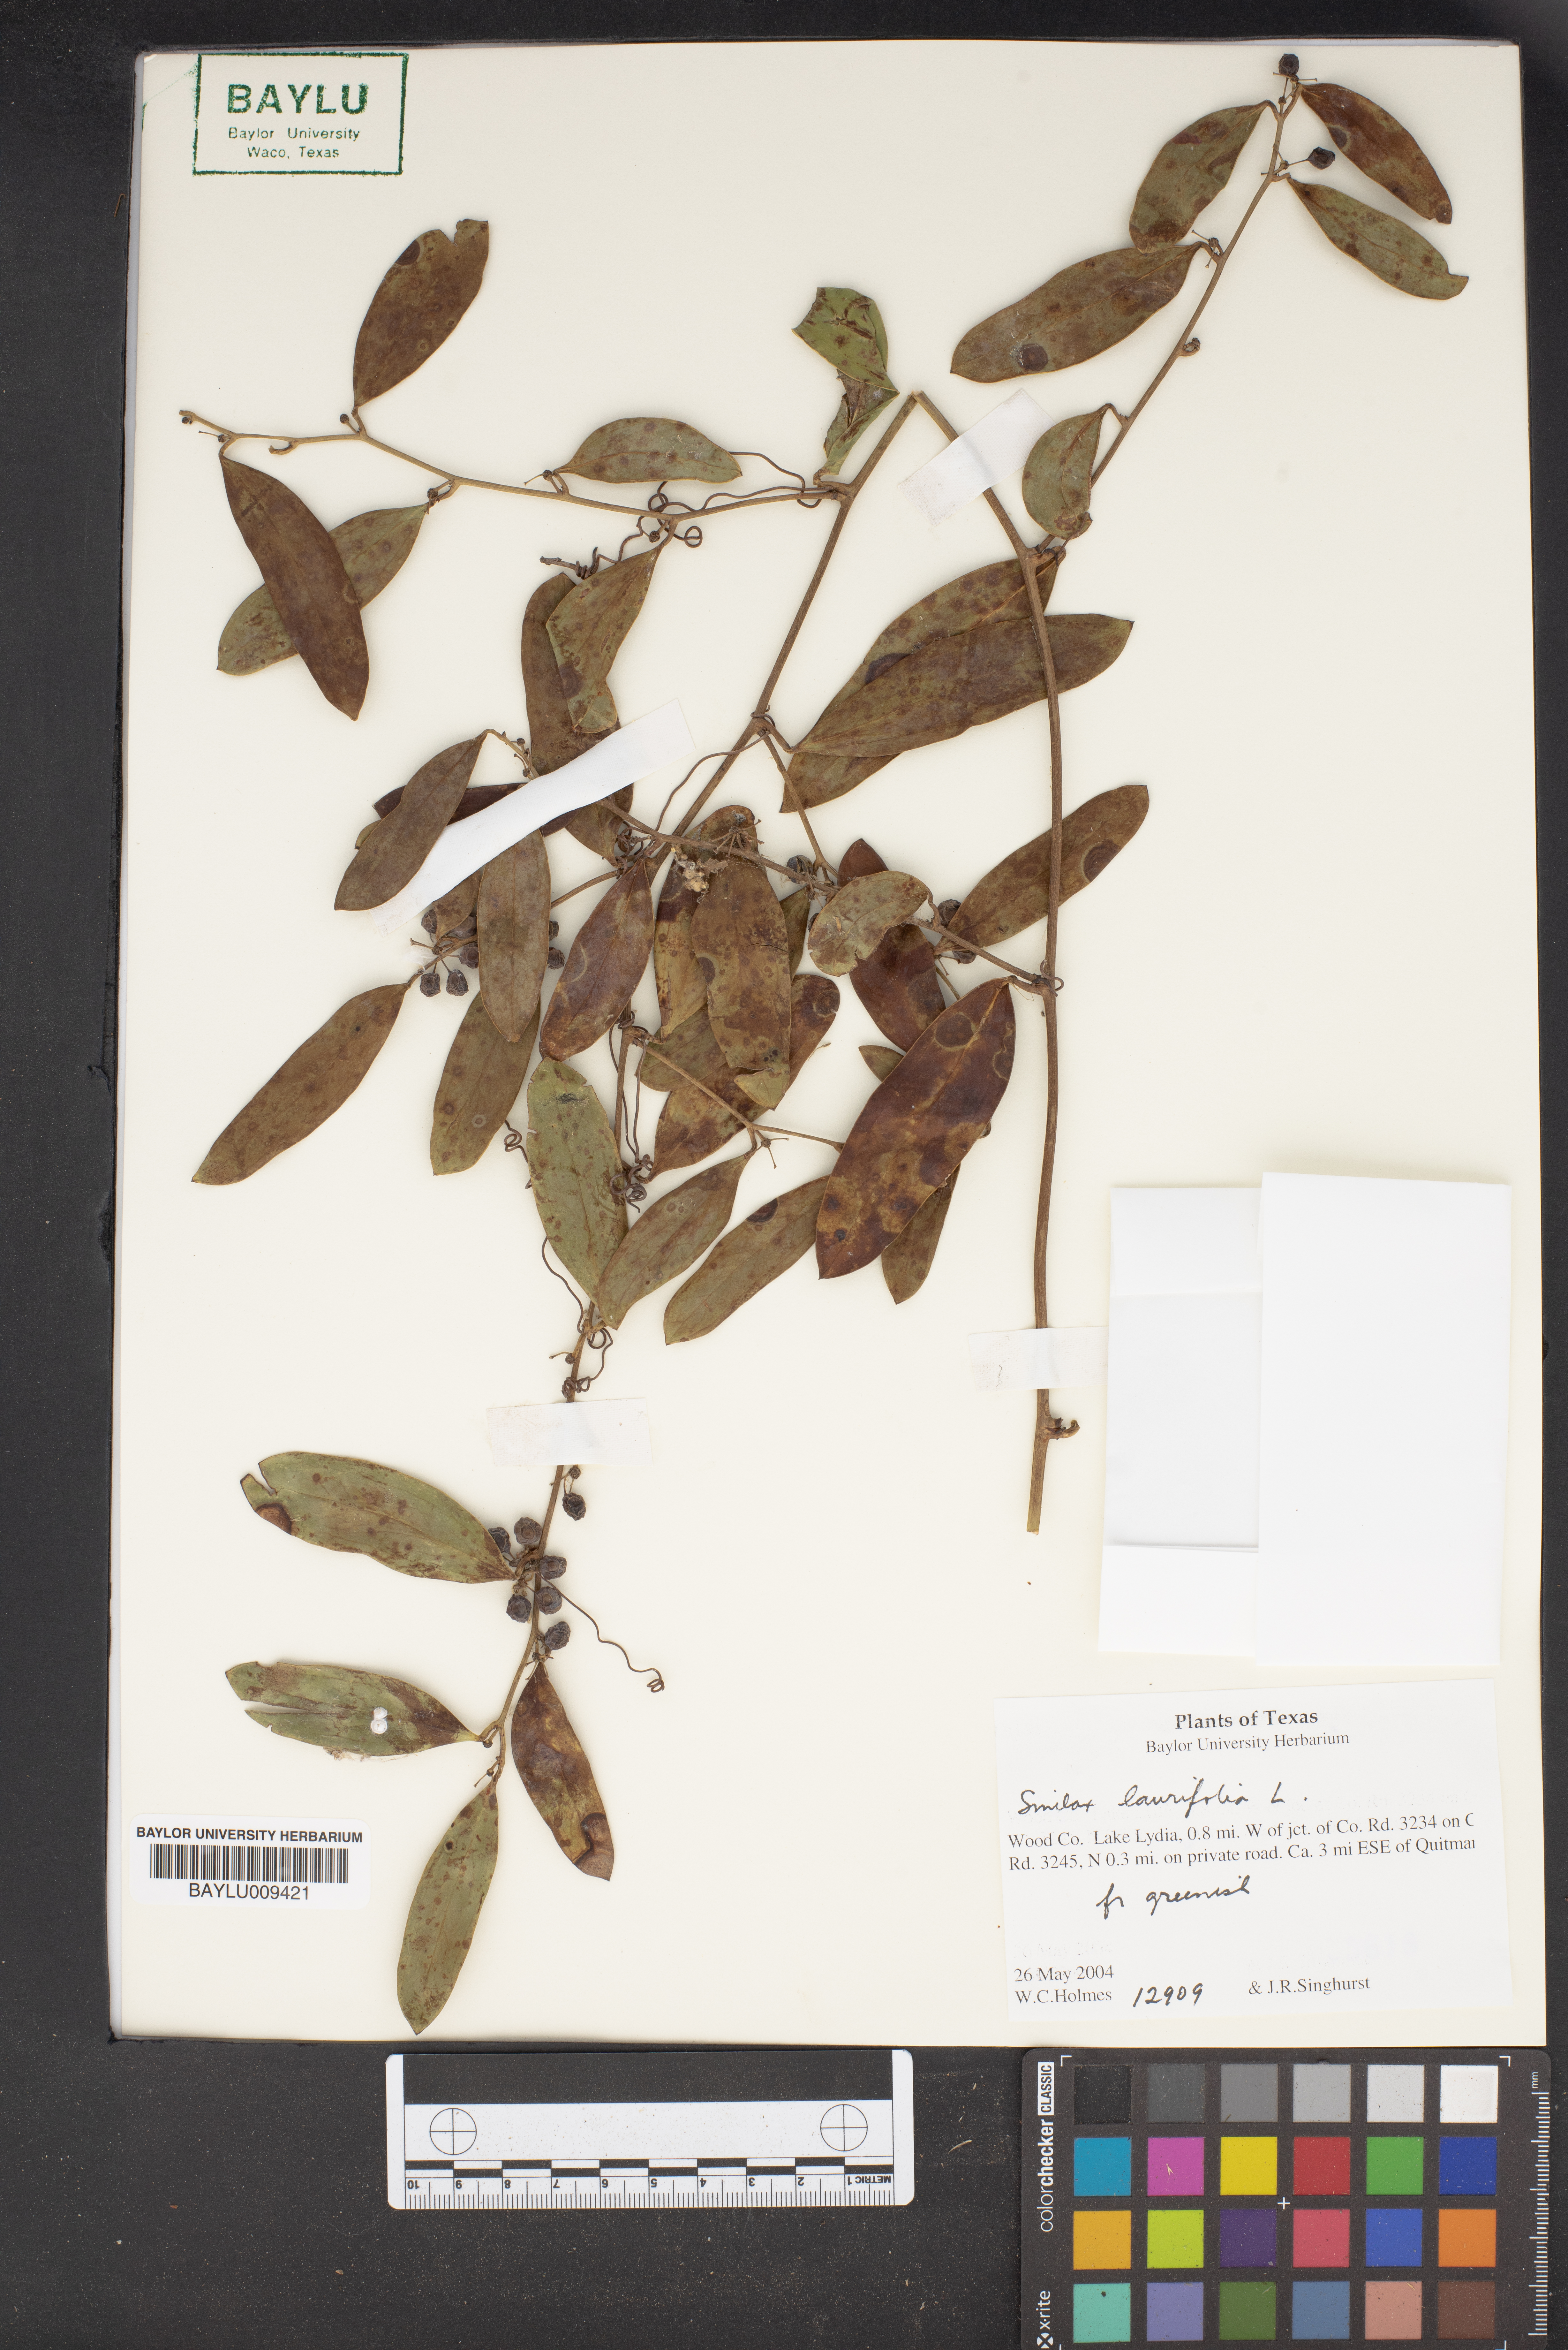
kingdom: Plantae
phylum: Tracheophyta
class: Liliopsida
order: Liliales
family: Smilacaceae
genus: Smilax
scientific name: Smilax laurifolia
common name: Bamboovine
